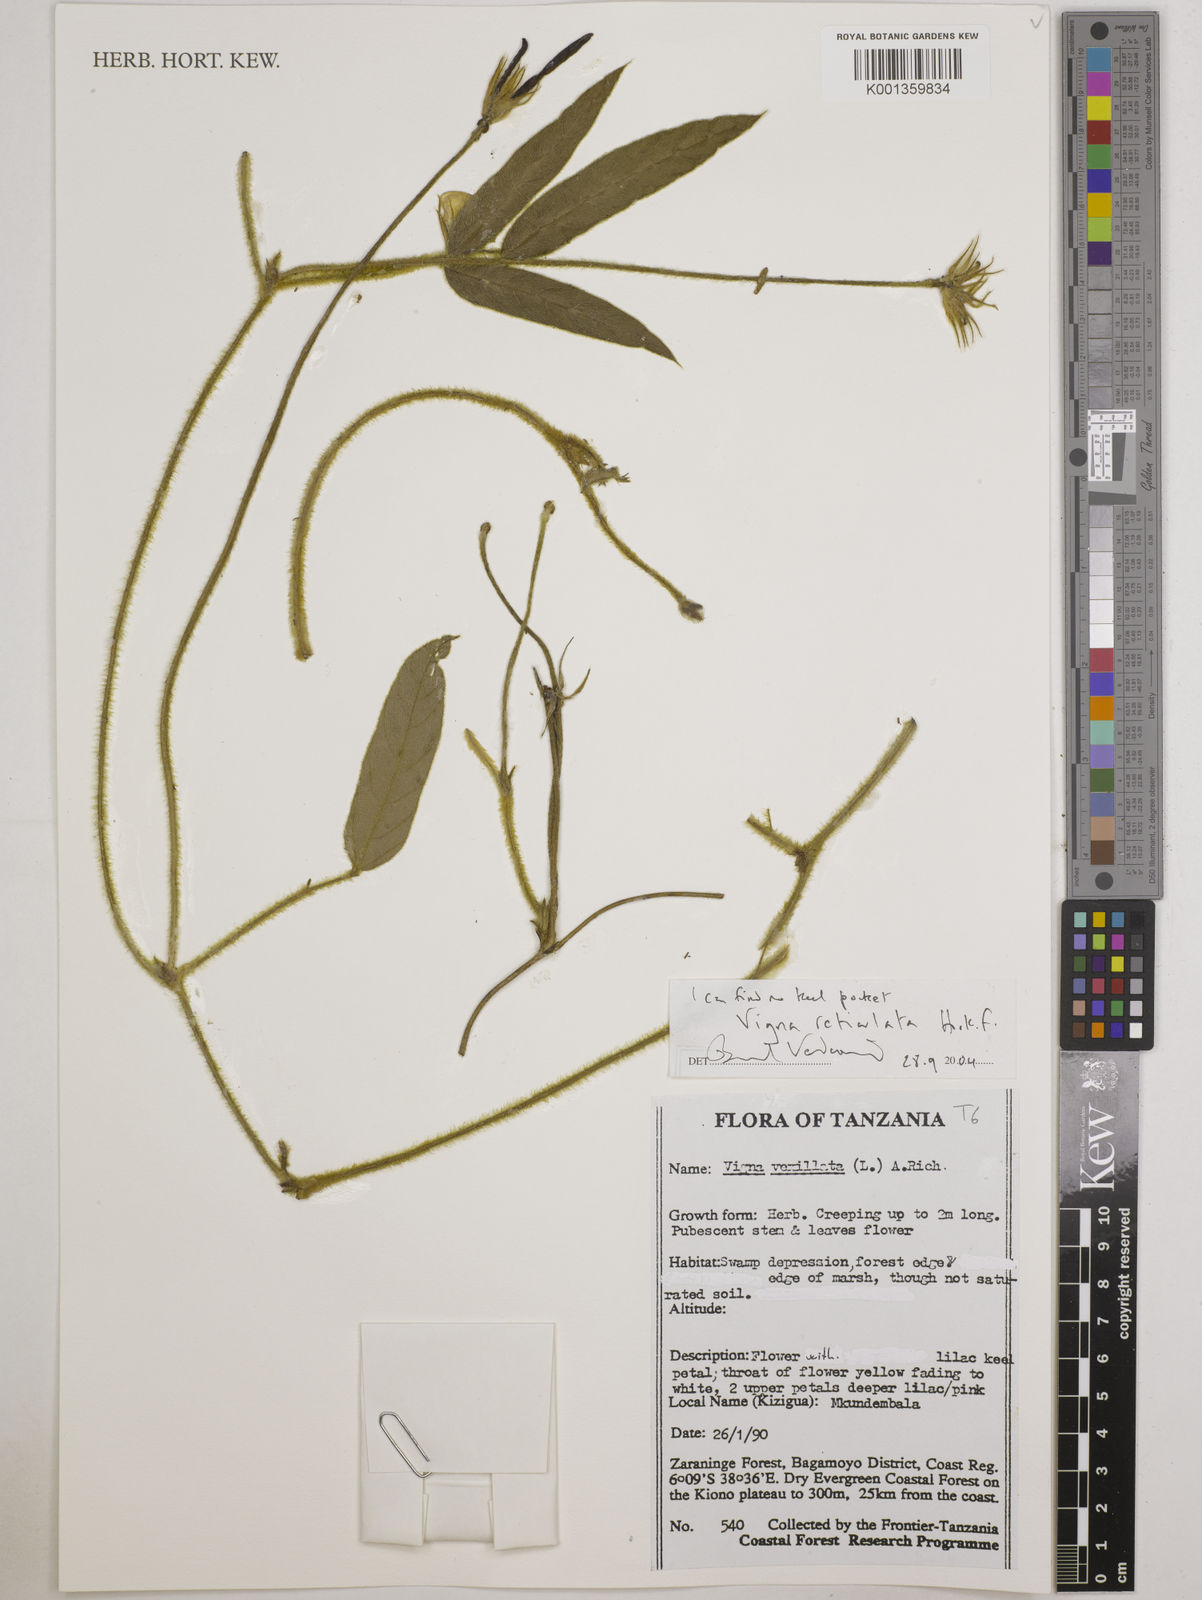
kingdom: Plantae
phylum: Tracheophyta
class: Magnoliopsida
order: Fabales
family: Fabaceae
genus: Vigna
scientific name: Vigna reticulata
